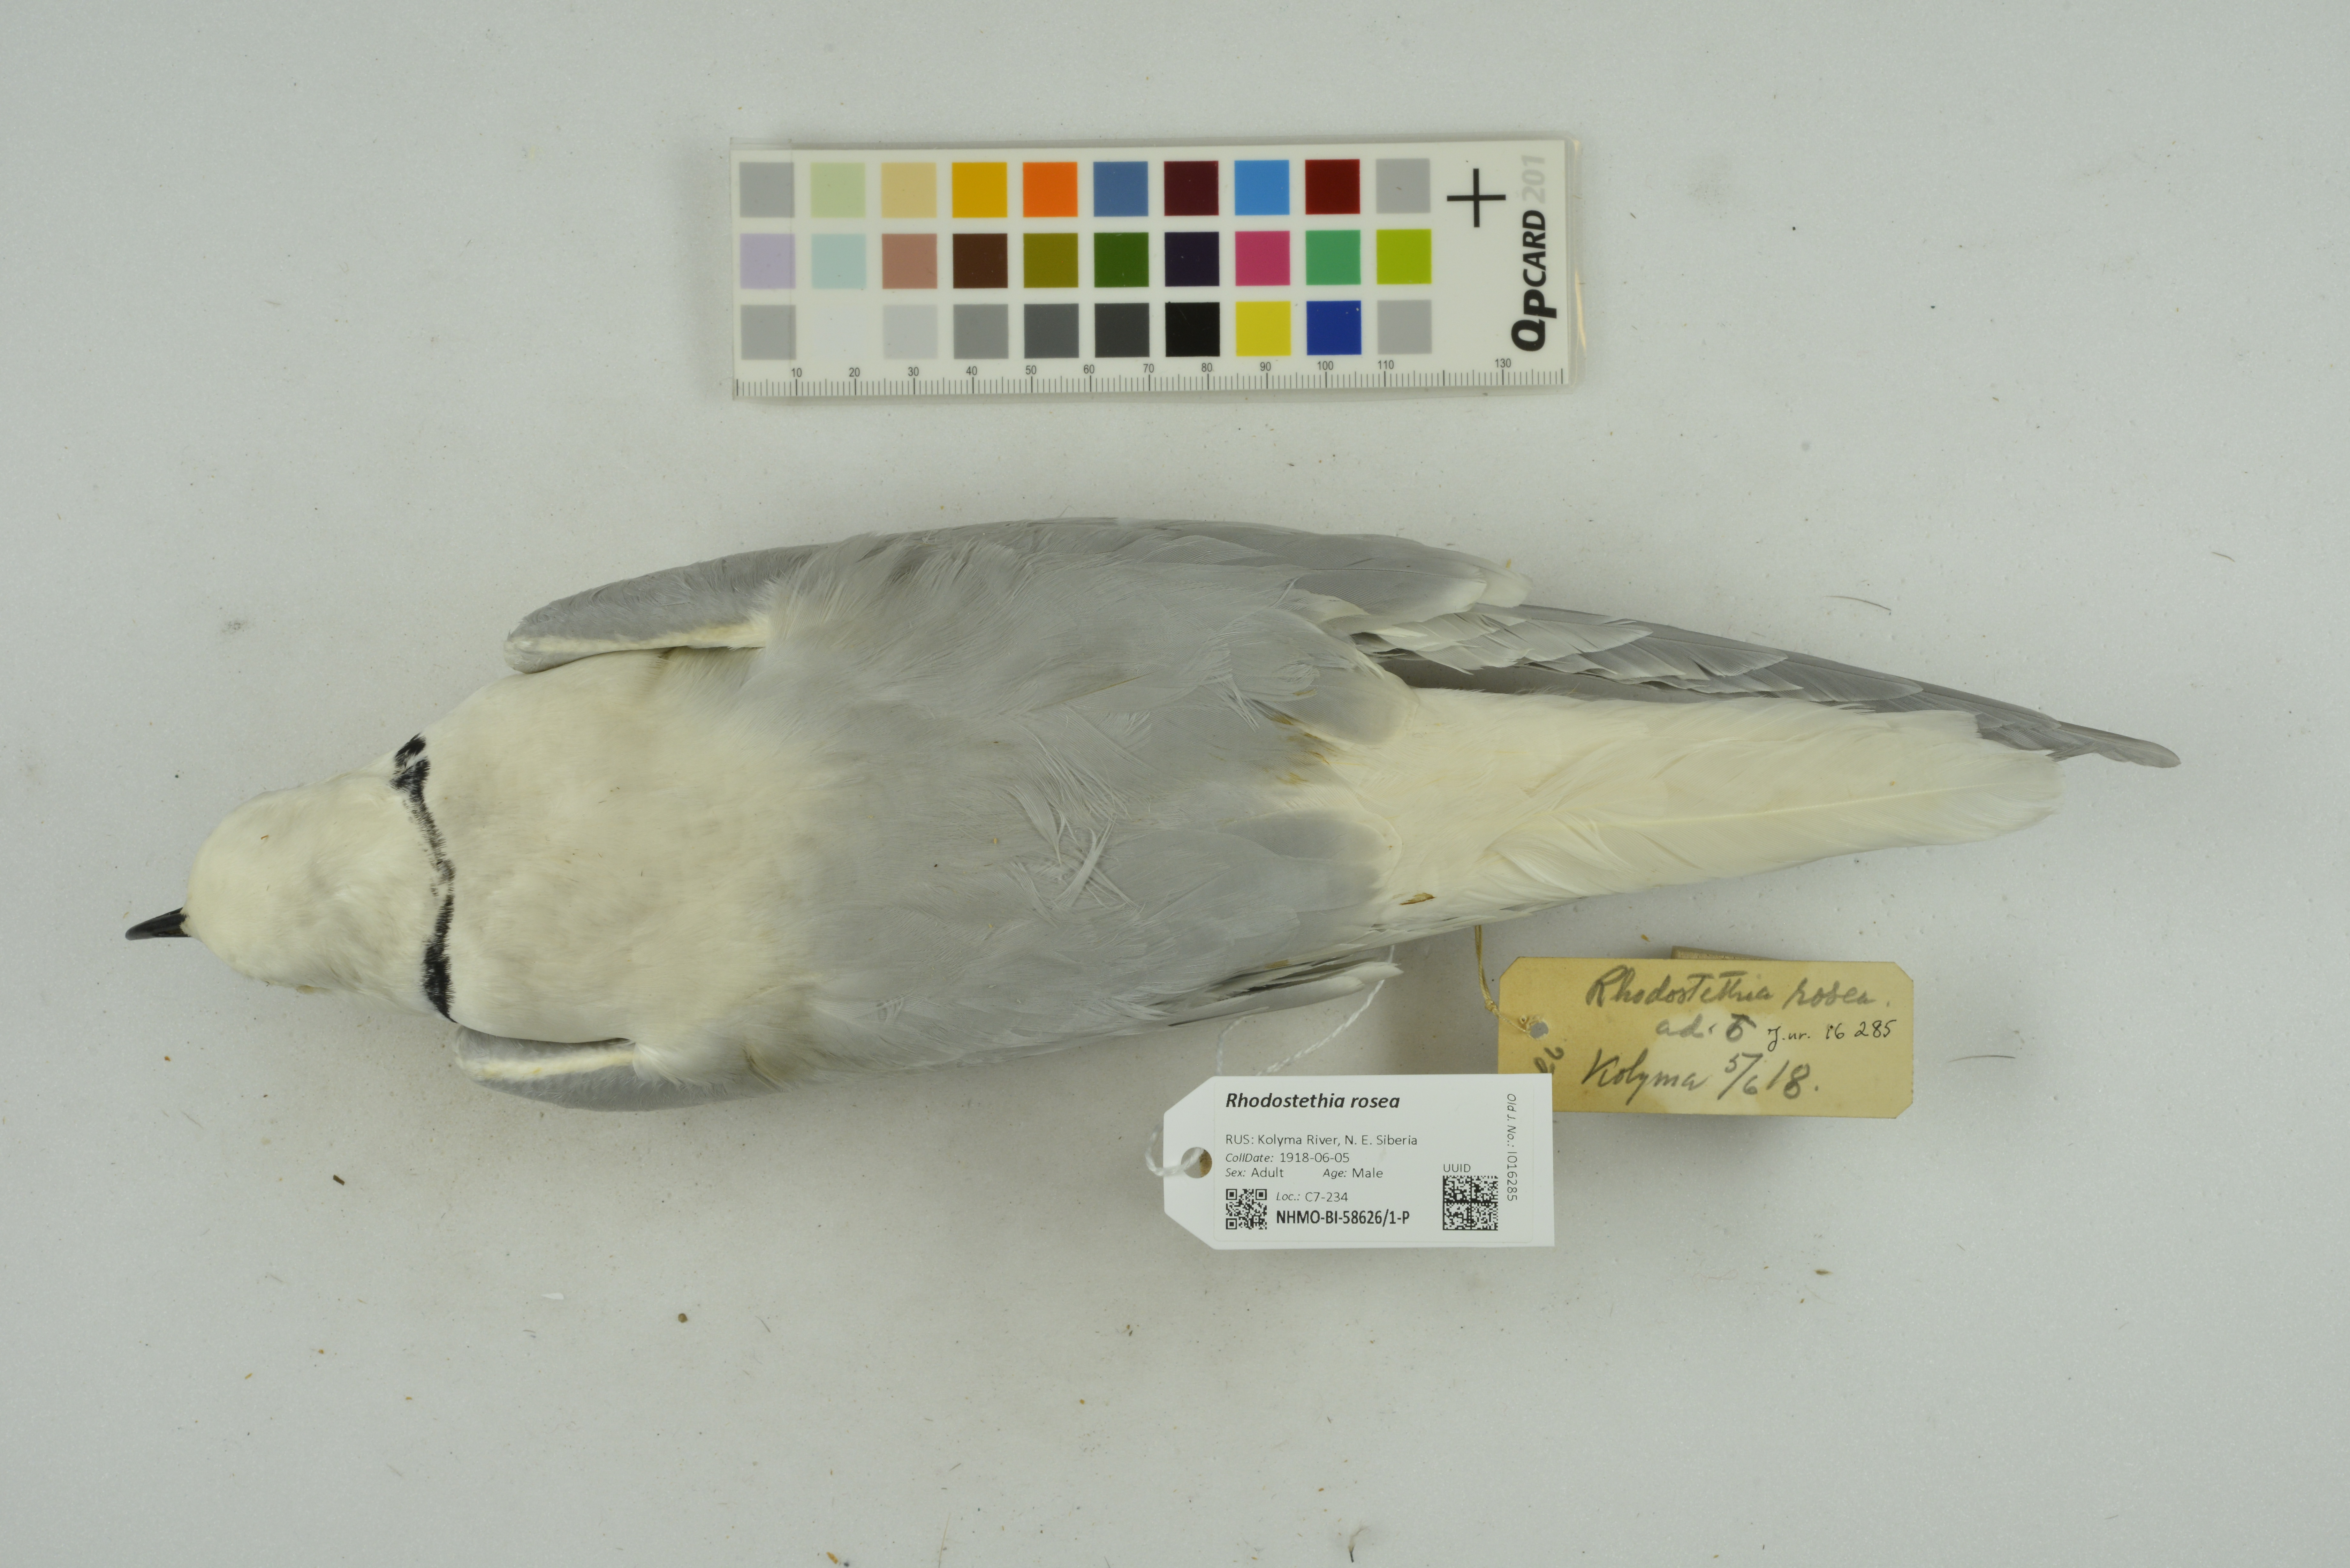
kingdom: Animalia
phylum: Chordata
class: Aves
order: Charadriiformes
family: Laridae
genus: Rhodostethia
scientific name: Rhodostethia rosea
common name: Ross's gull
